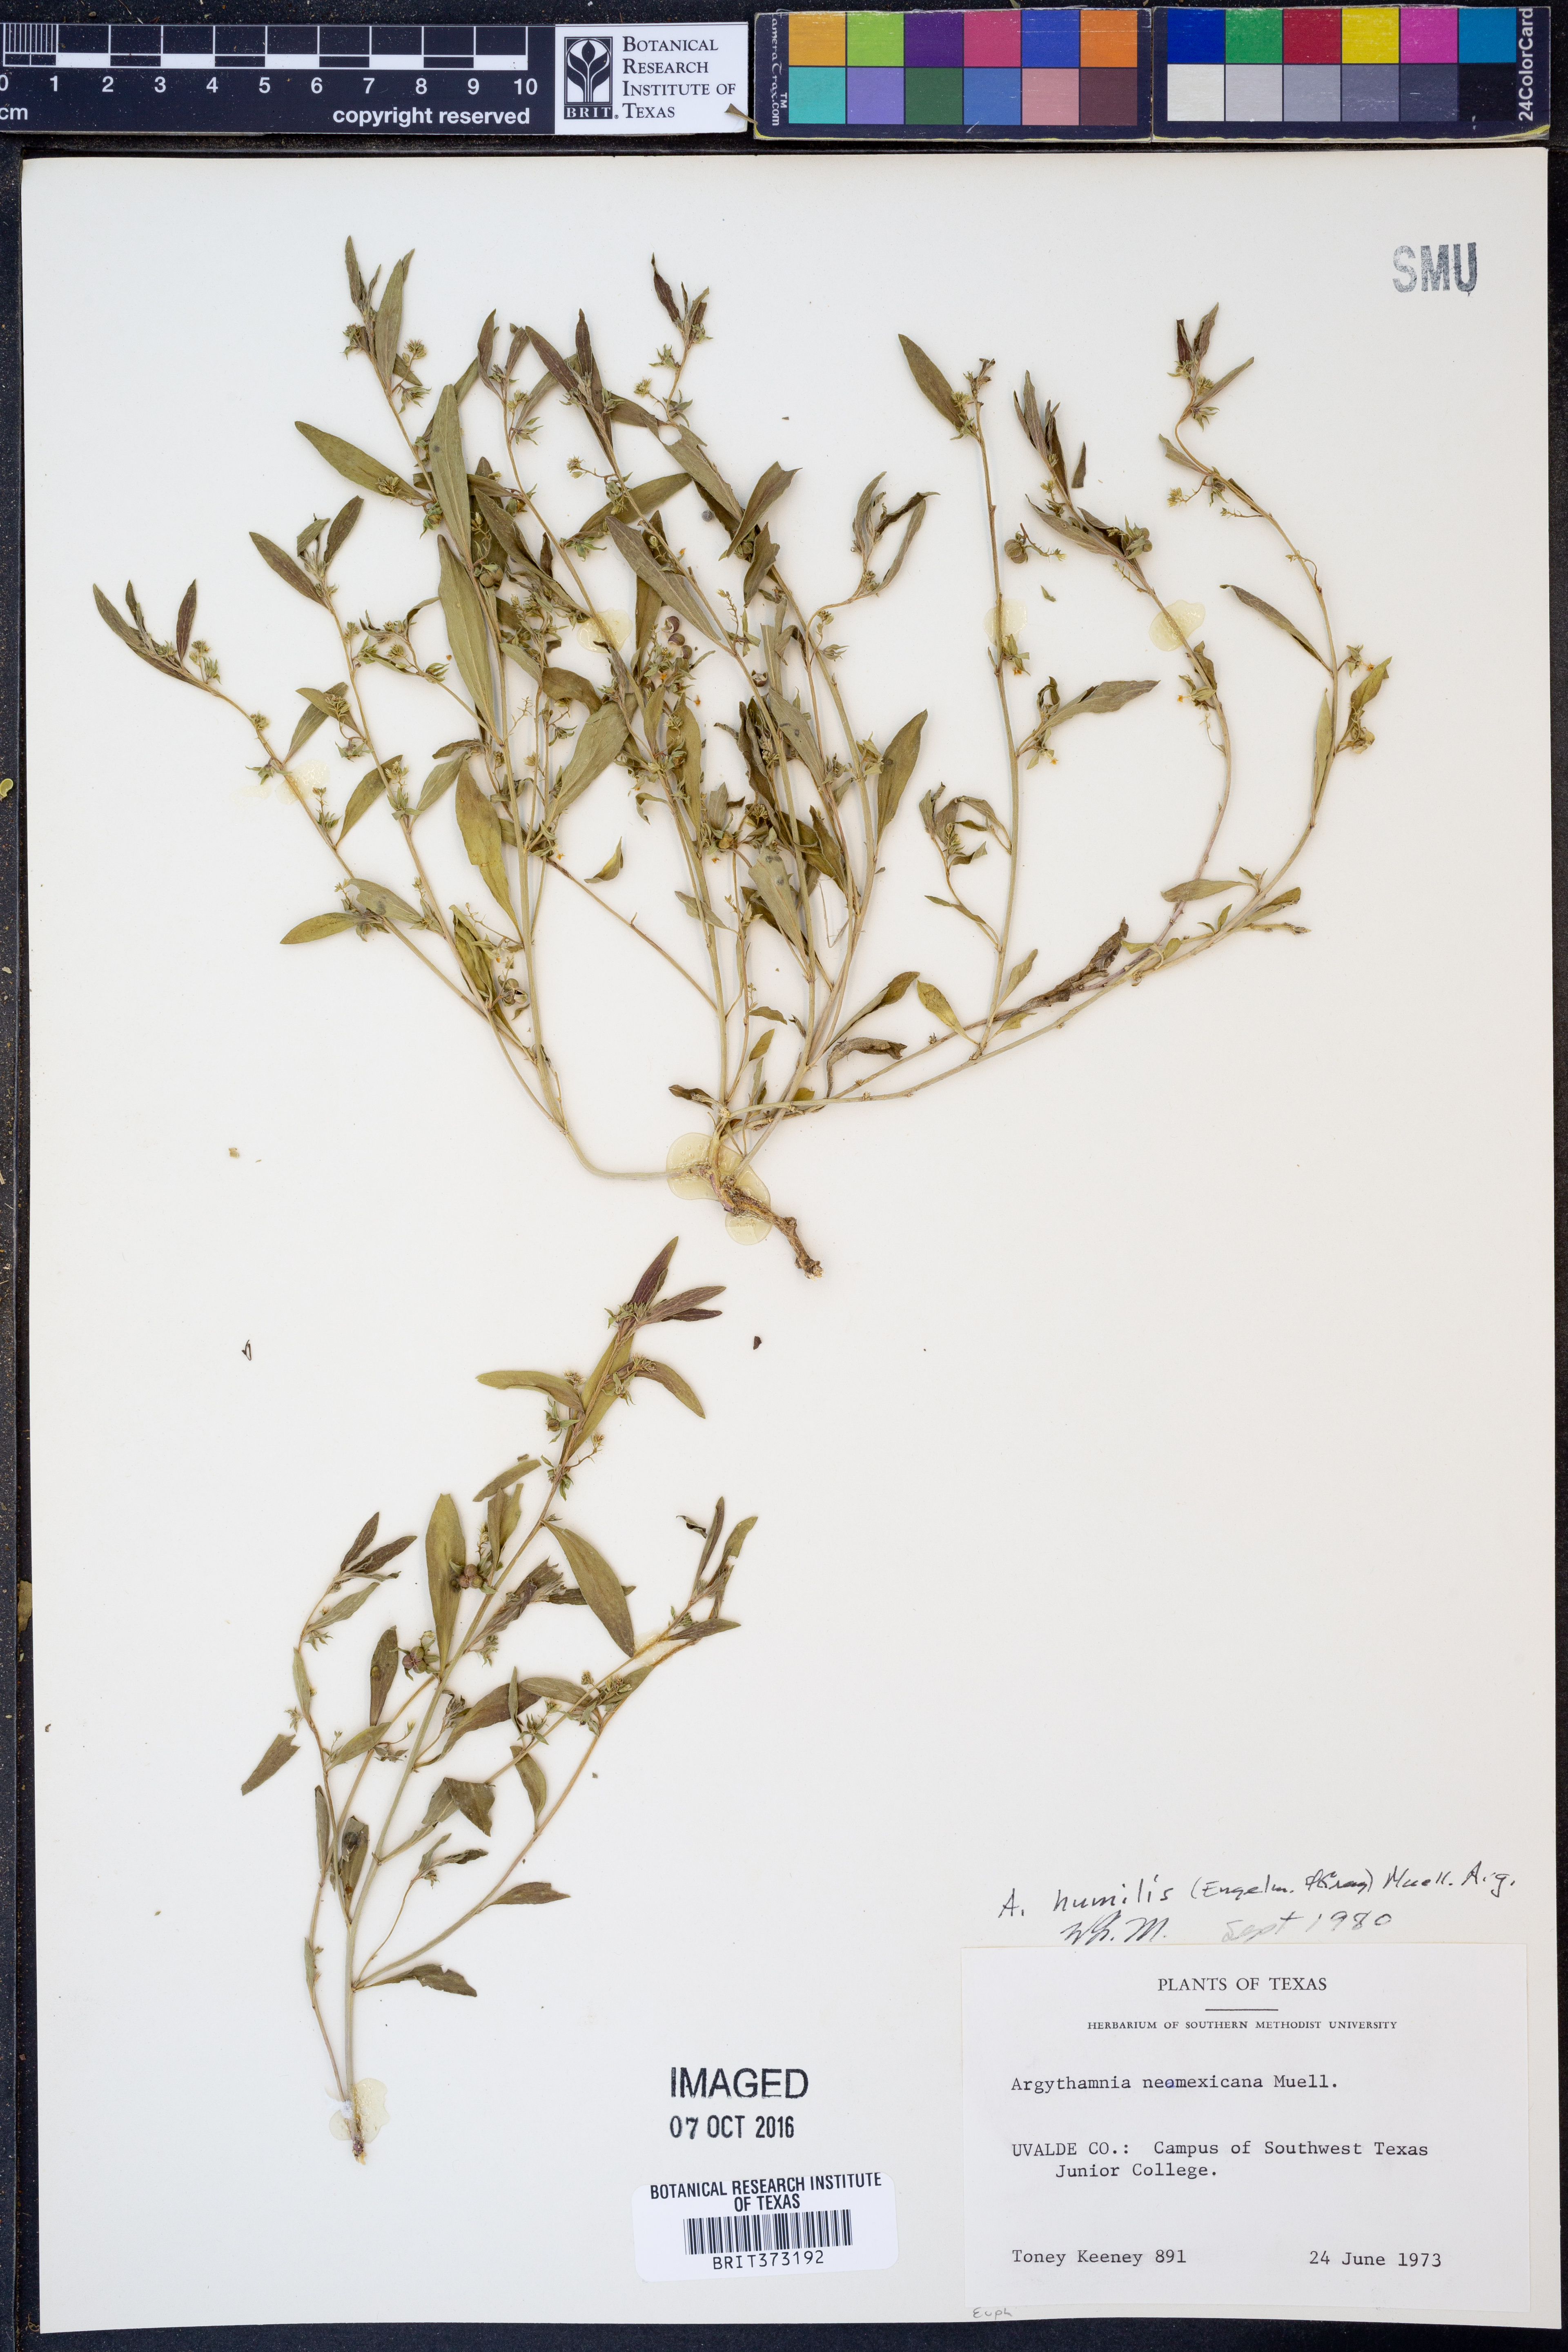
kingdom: Plantae
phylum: Tracheophyta
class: Magnoliopsida
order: Malpighiales
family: Euphorbiaceae
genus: Ditaxis
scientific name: Ditaxis humilis
